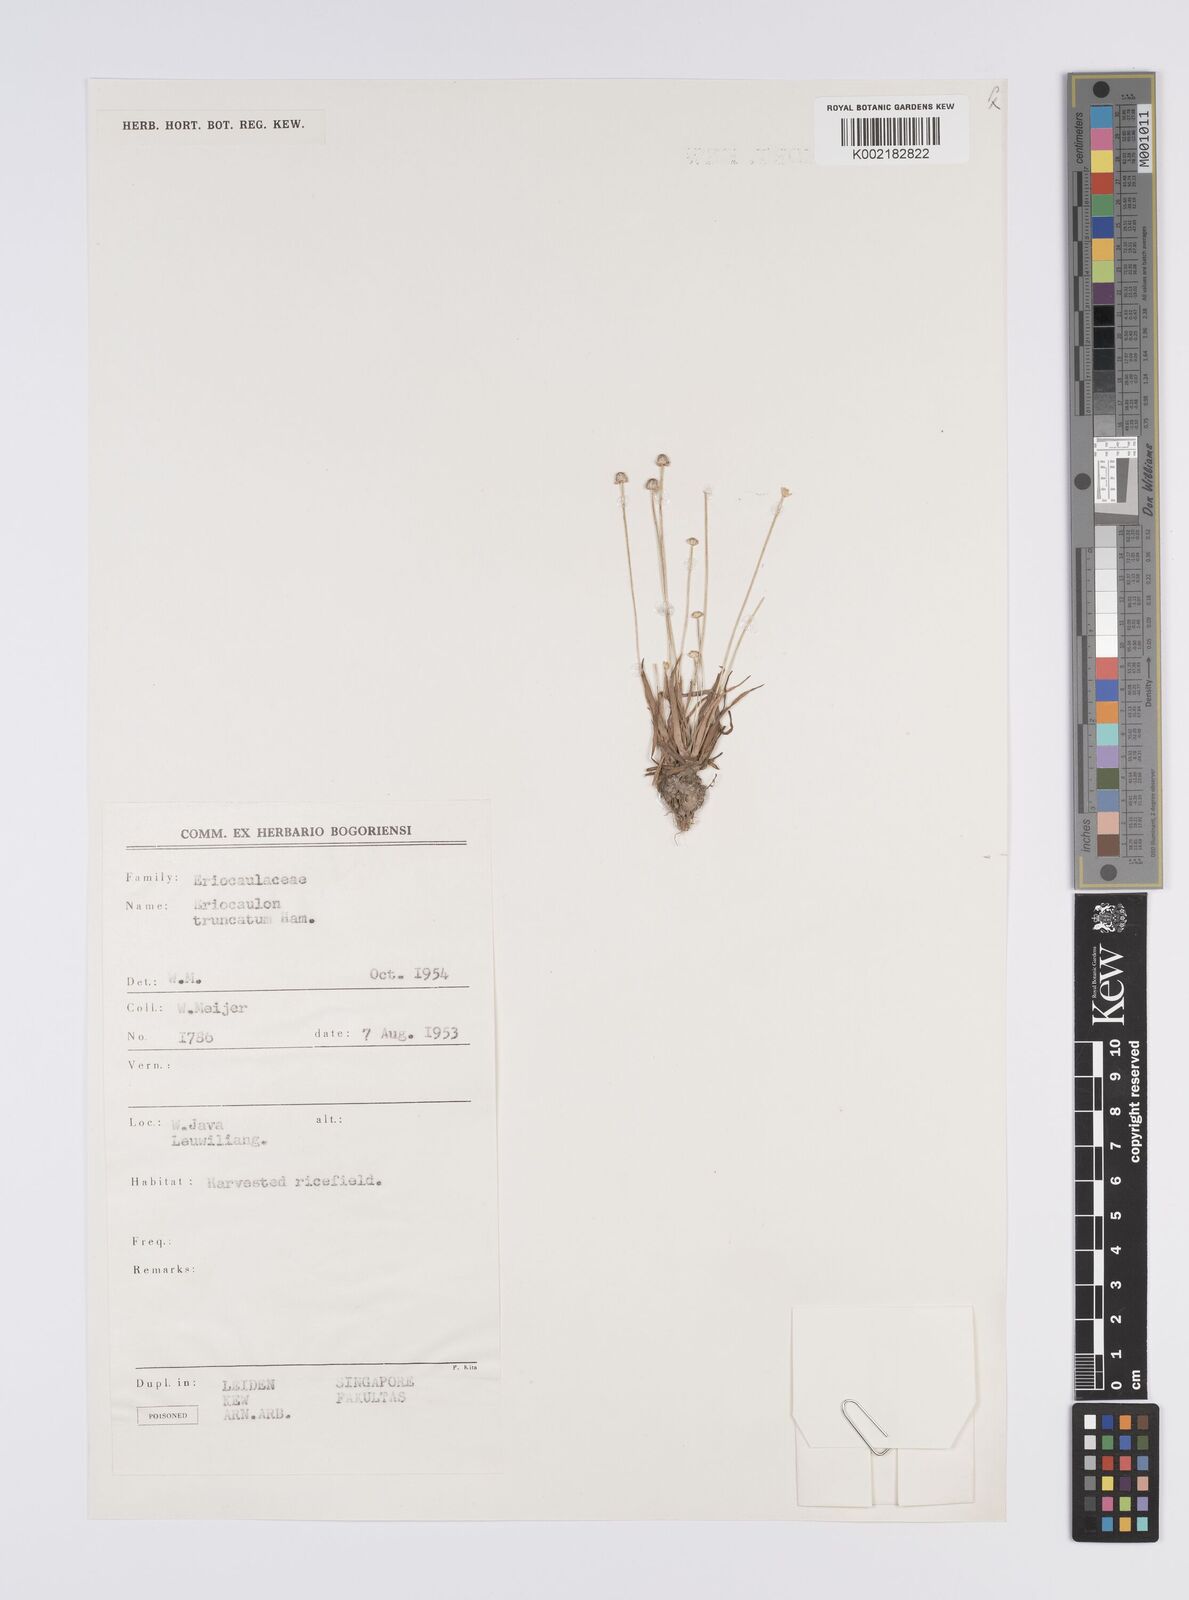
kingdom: Plantae
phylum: Tracheophyta
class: Liliopsida
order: Poales
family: Eriocaulaceae
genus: Eriocaulon
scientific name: Eriocaulon truncatum
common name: Short pipe-wort
